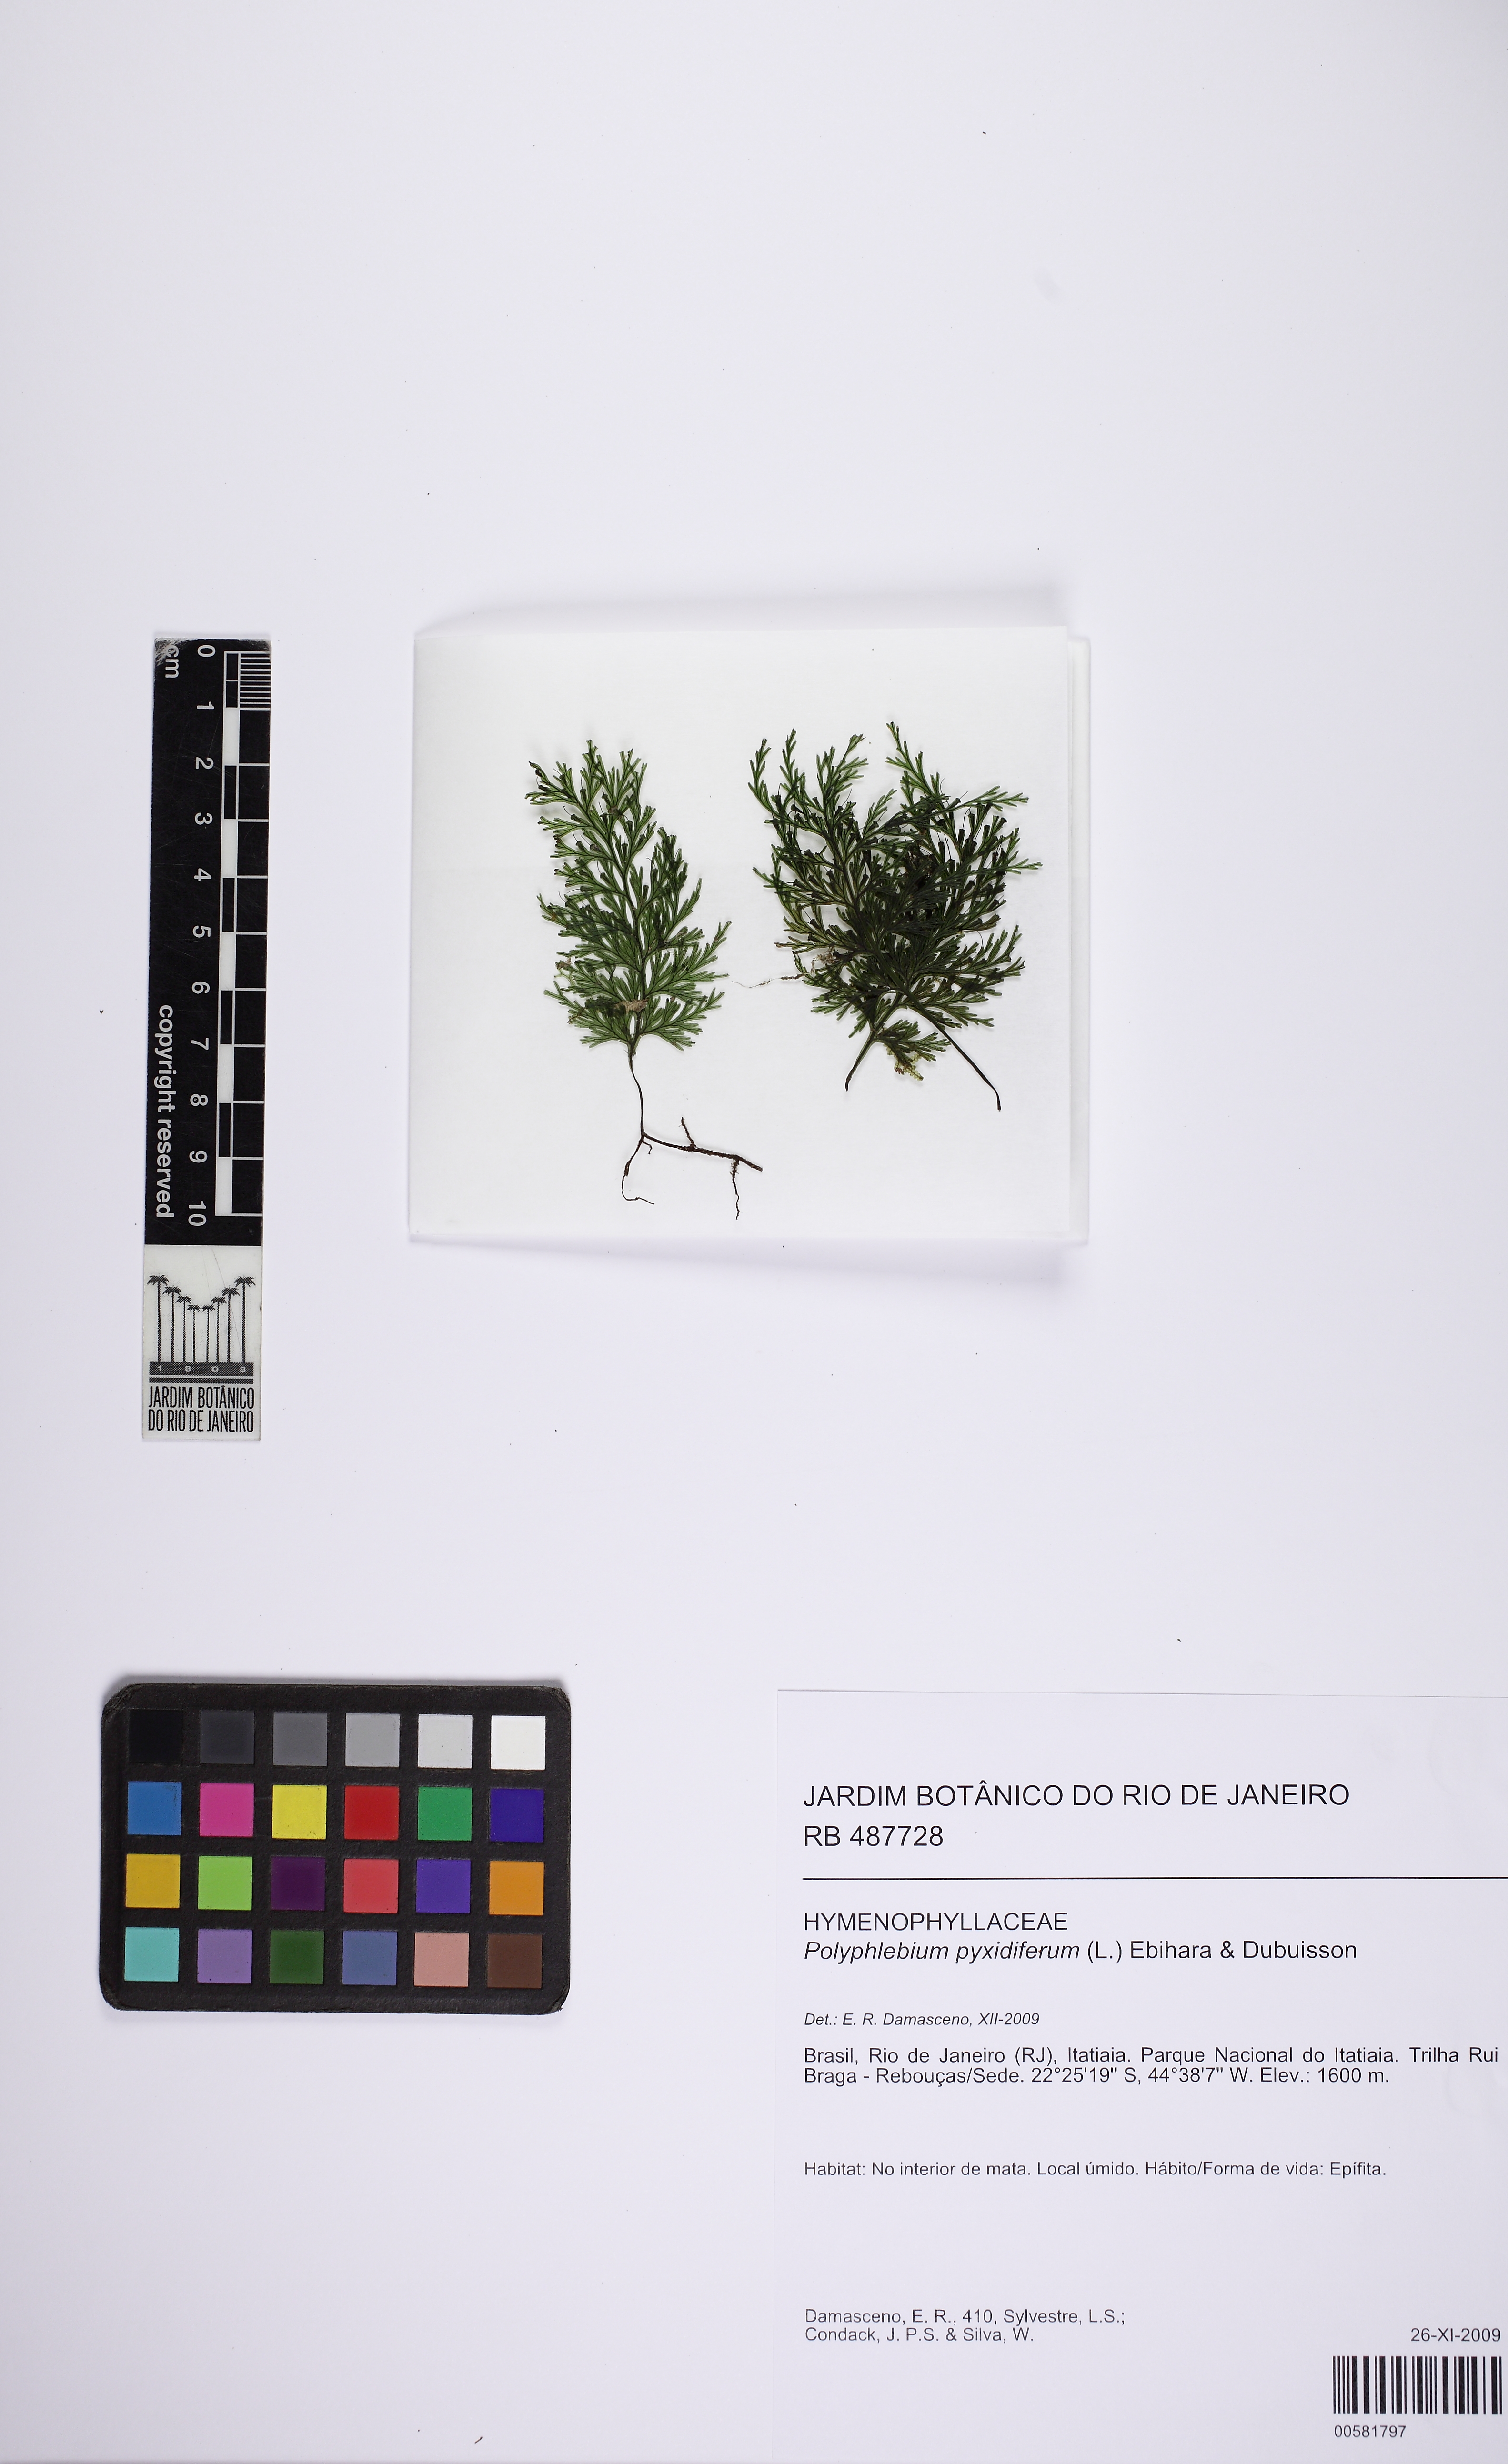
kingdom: Plantae
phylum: Tracheophyta
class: Polypodiopsida
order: Hymenophyllales
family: Hymenophyllaceae
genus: Polyphlebium
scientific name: Polyphlebium hymenophylloides
